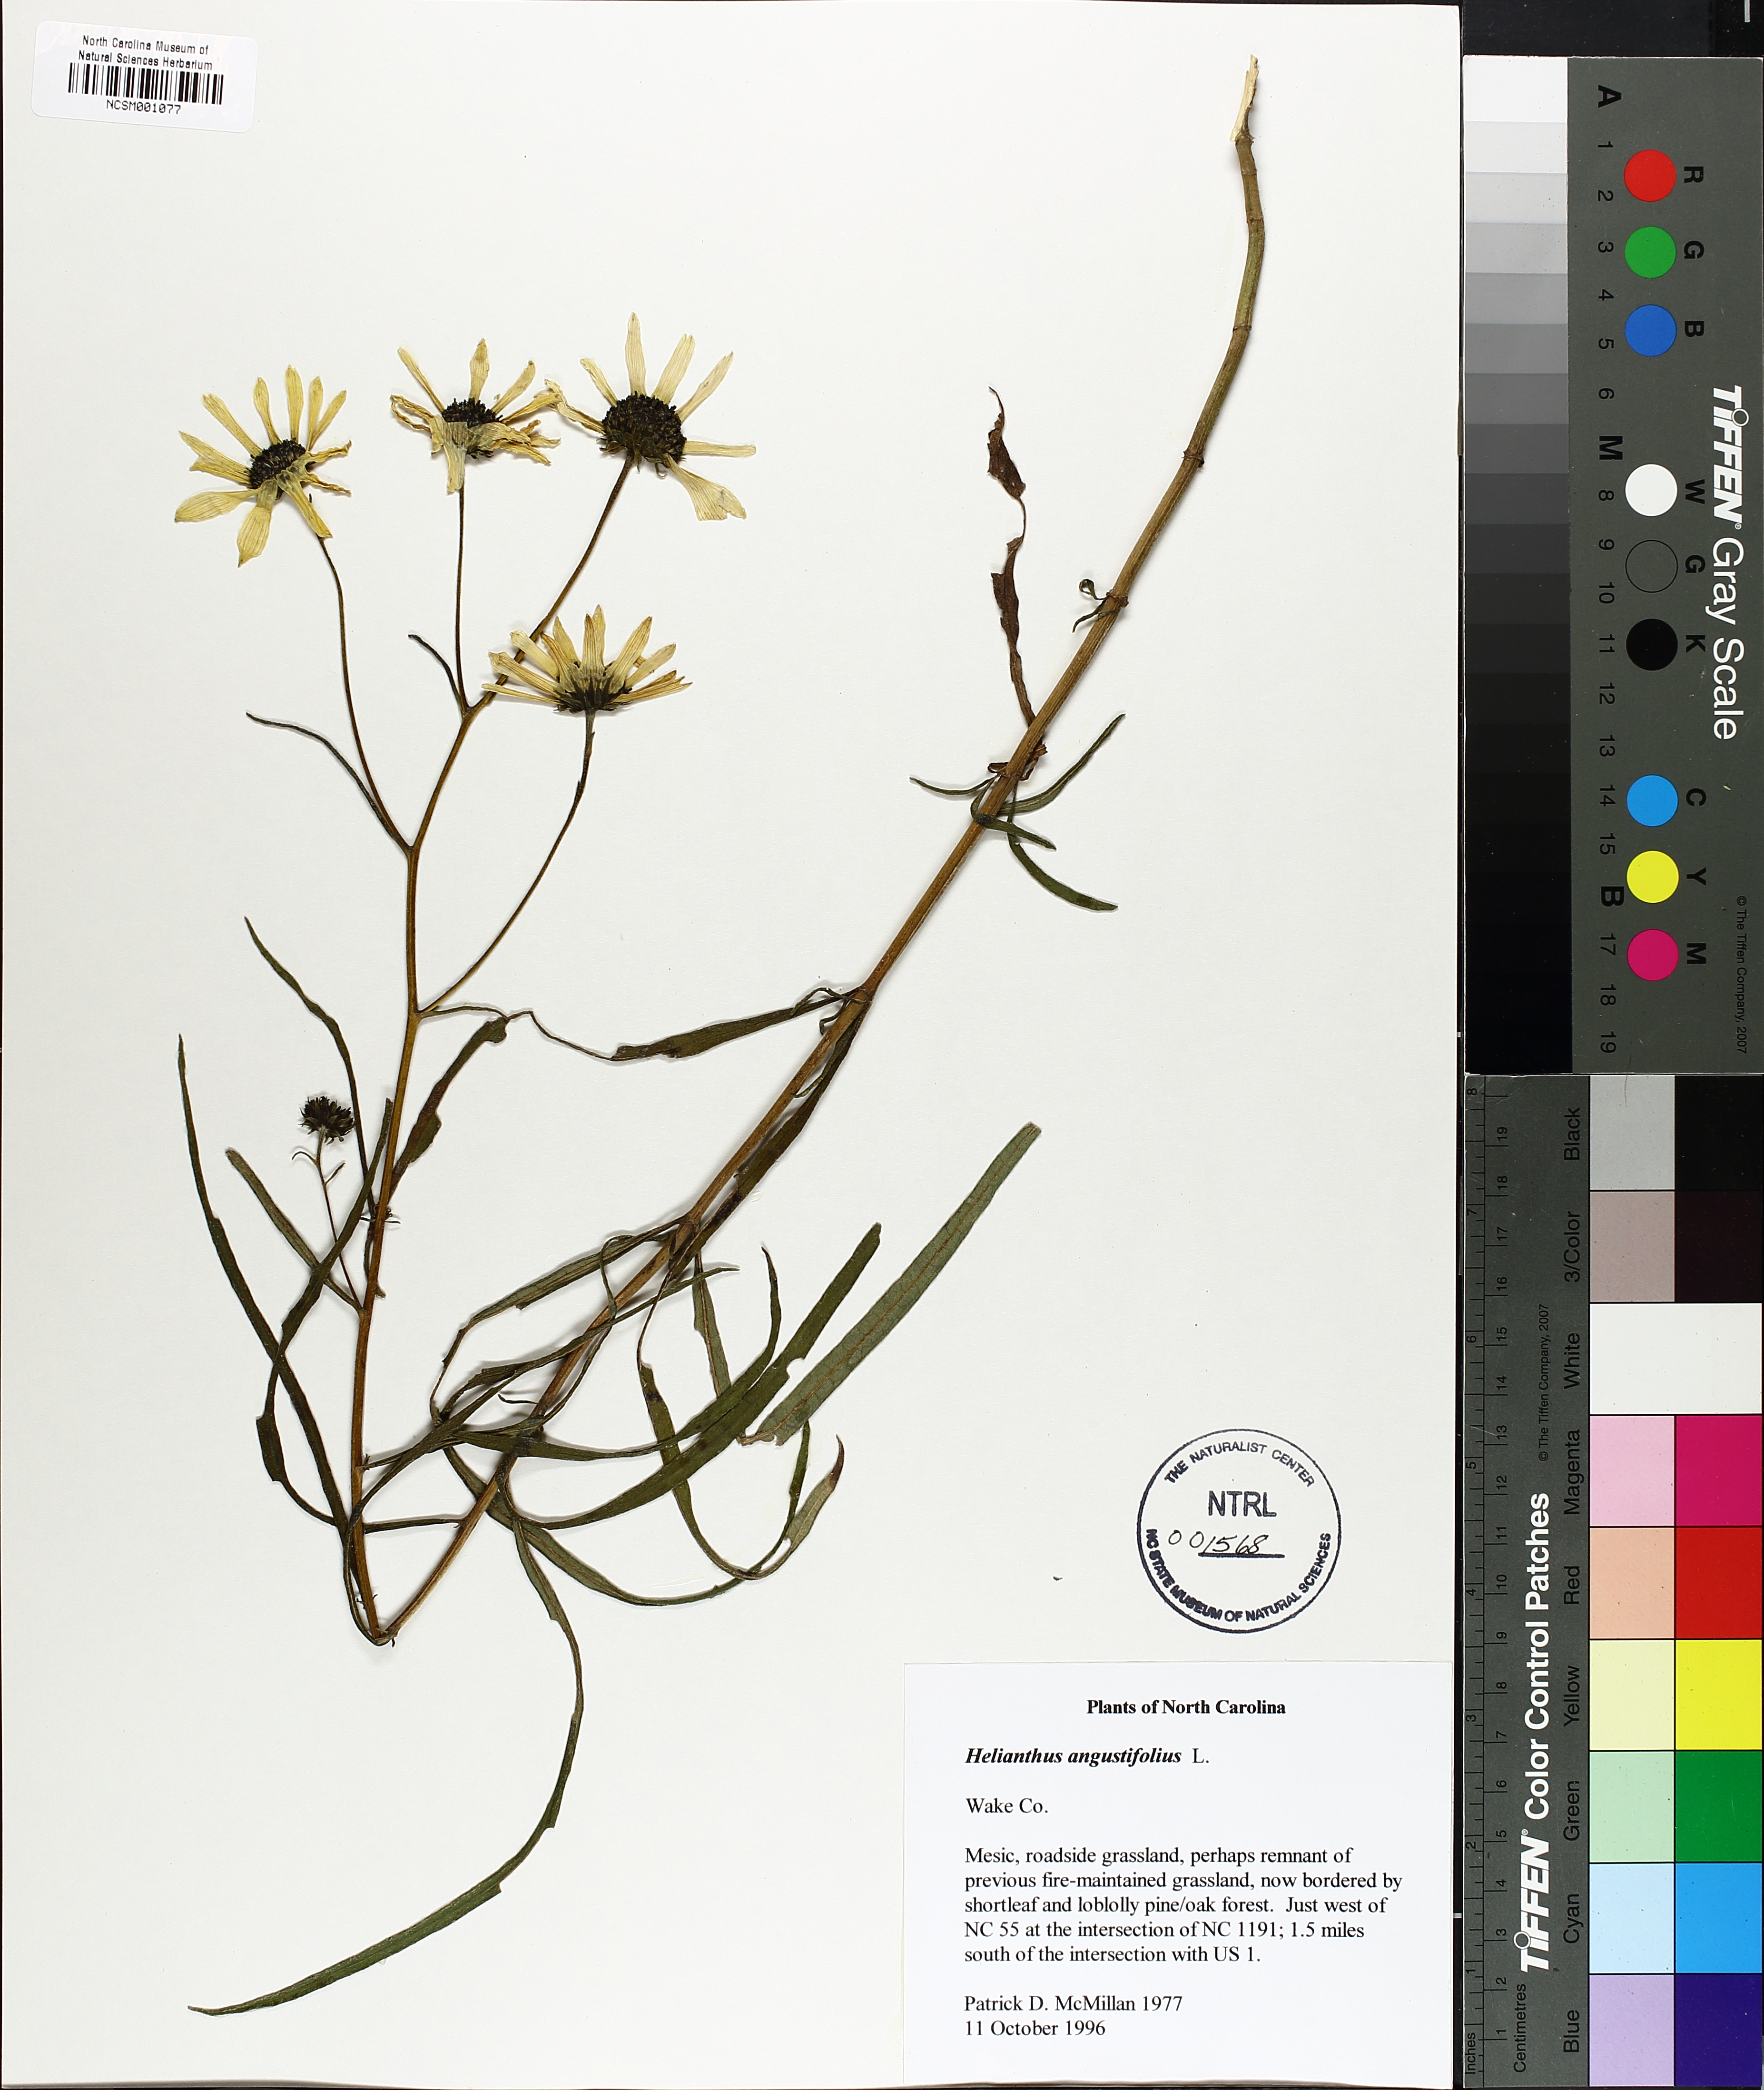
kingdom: Plantae
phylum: Tracheophyta
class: Magnoliopsida
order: Asterales
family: Asteraceae
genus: Helianthus
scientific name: Helianthus angustifolius
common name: Swamp sunflower
